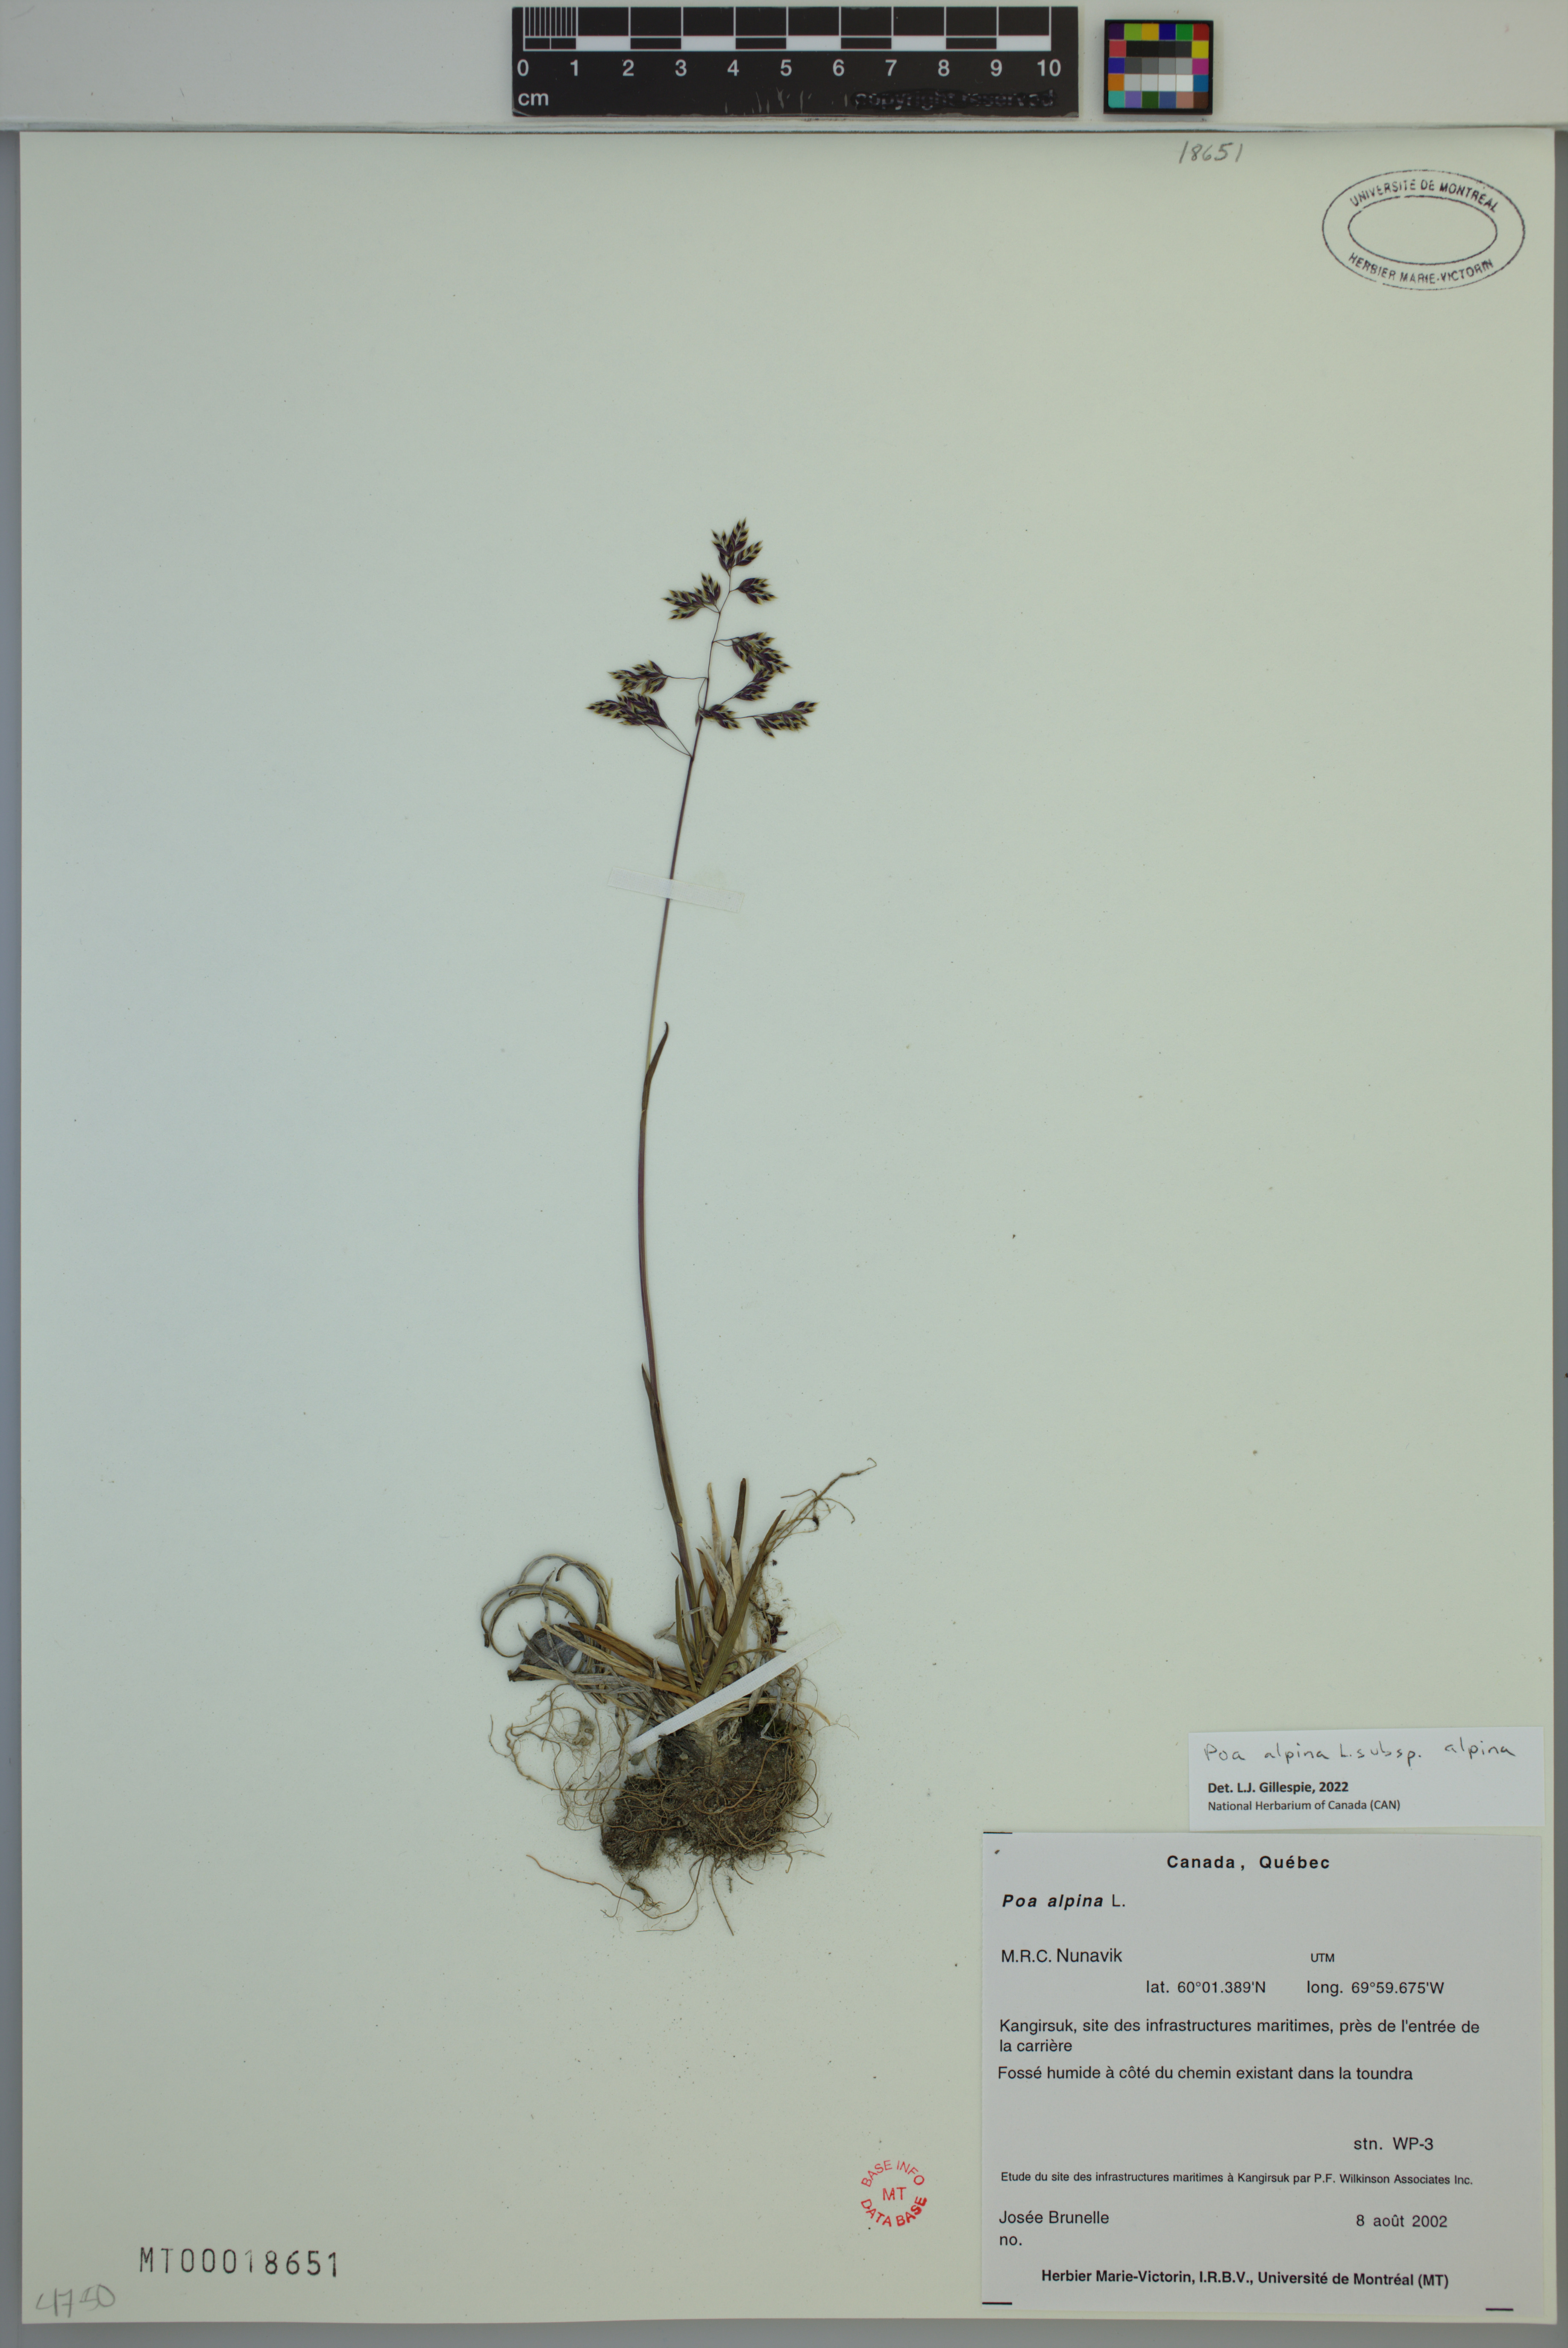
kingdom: Plantae
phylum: Tracheophyta
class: Liliopsida
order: Poales
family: Poaceae
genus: Poa
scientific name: Poa alpina
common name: Alpine bluegrass
